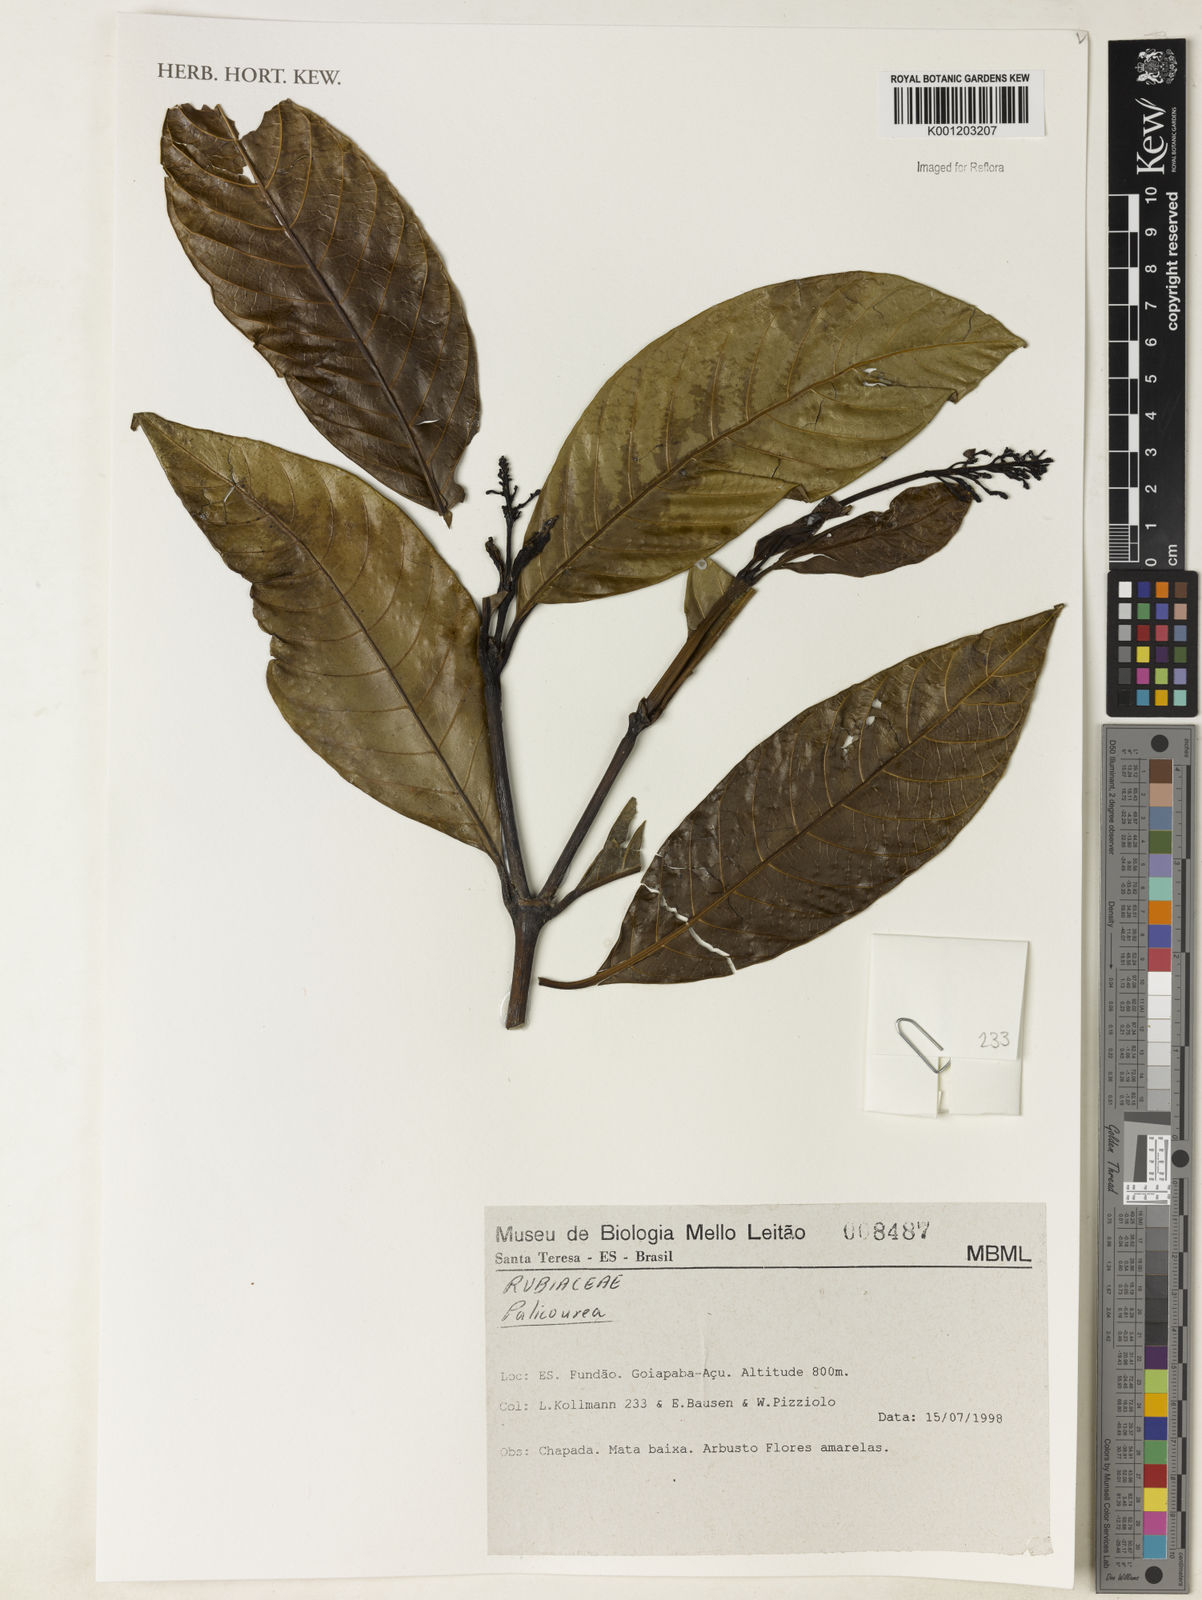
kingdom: Plantae
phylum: Tracheophyta
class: Magnoliopsida
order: Gentianales
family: Rubiaceae
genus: Palicourea
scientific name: Palicourea
